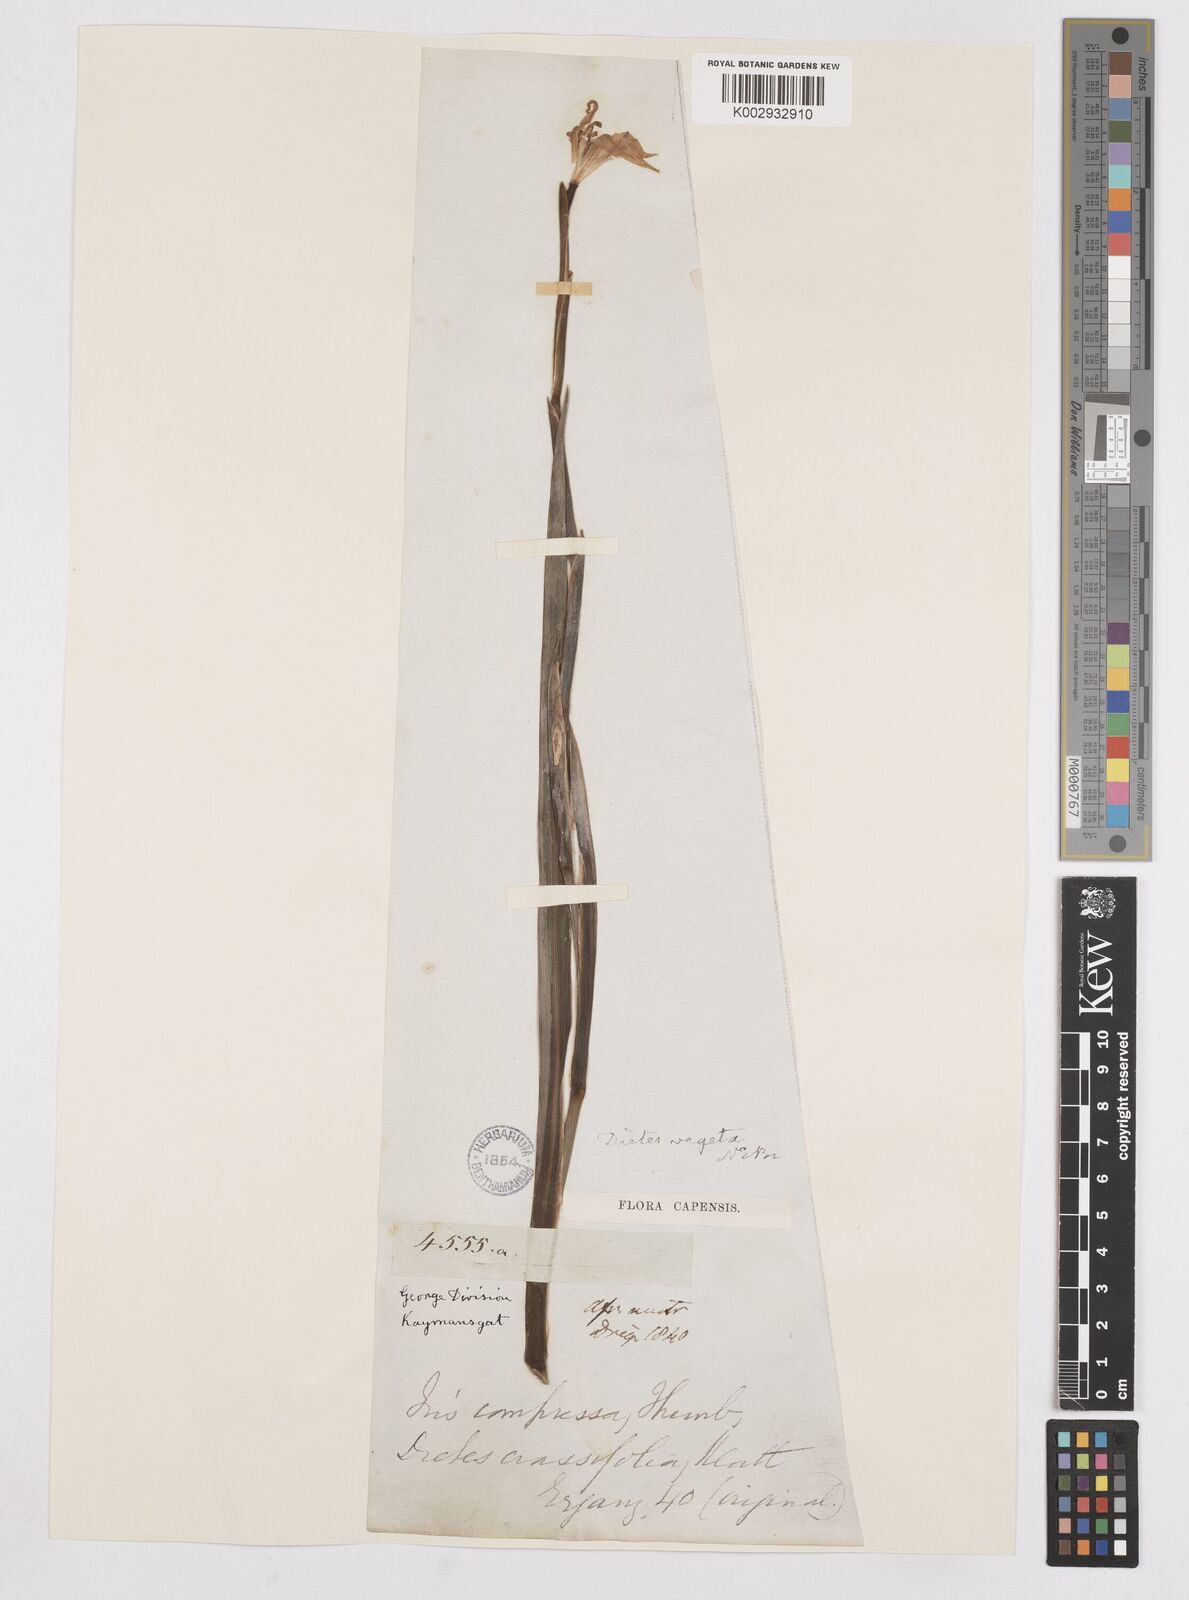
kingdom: Plantae
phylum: Tracheophyta
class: Liliopsida
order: Asparagales
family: Iridaceae
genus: Dietes
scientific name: Dietes iridioides
